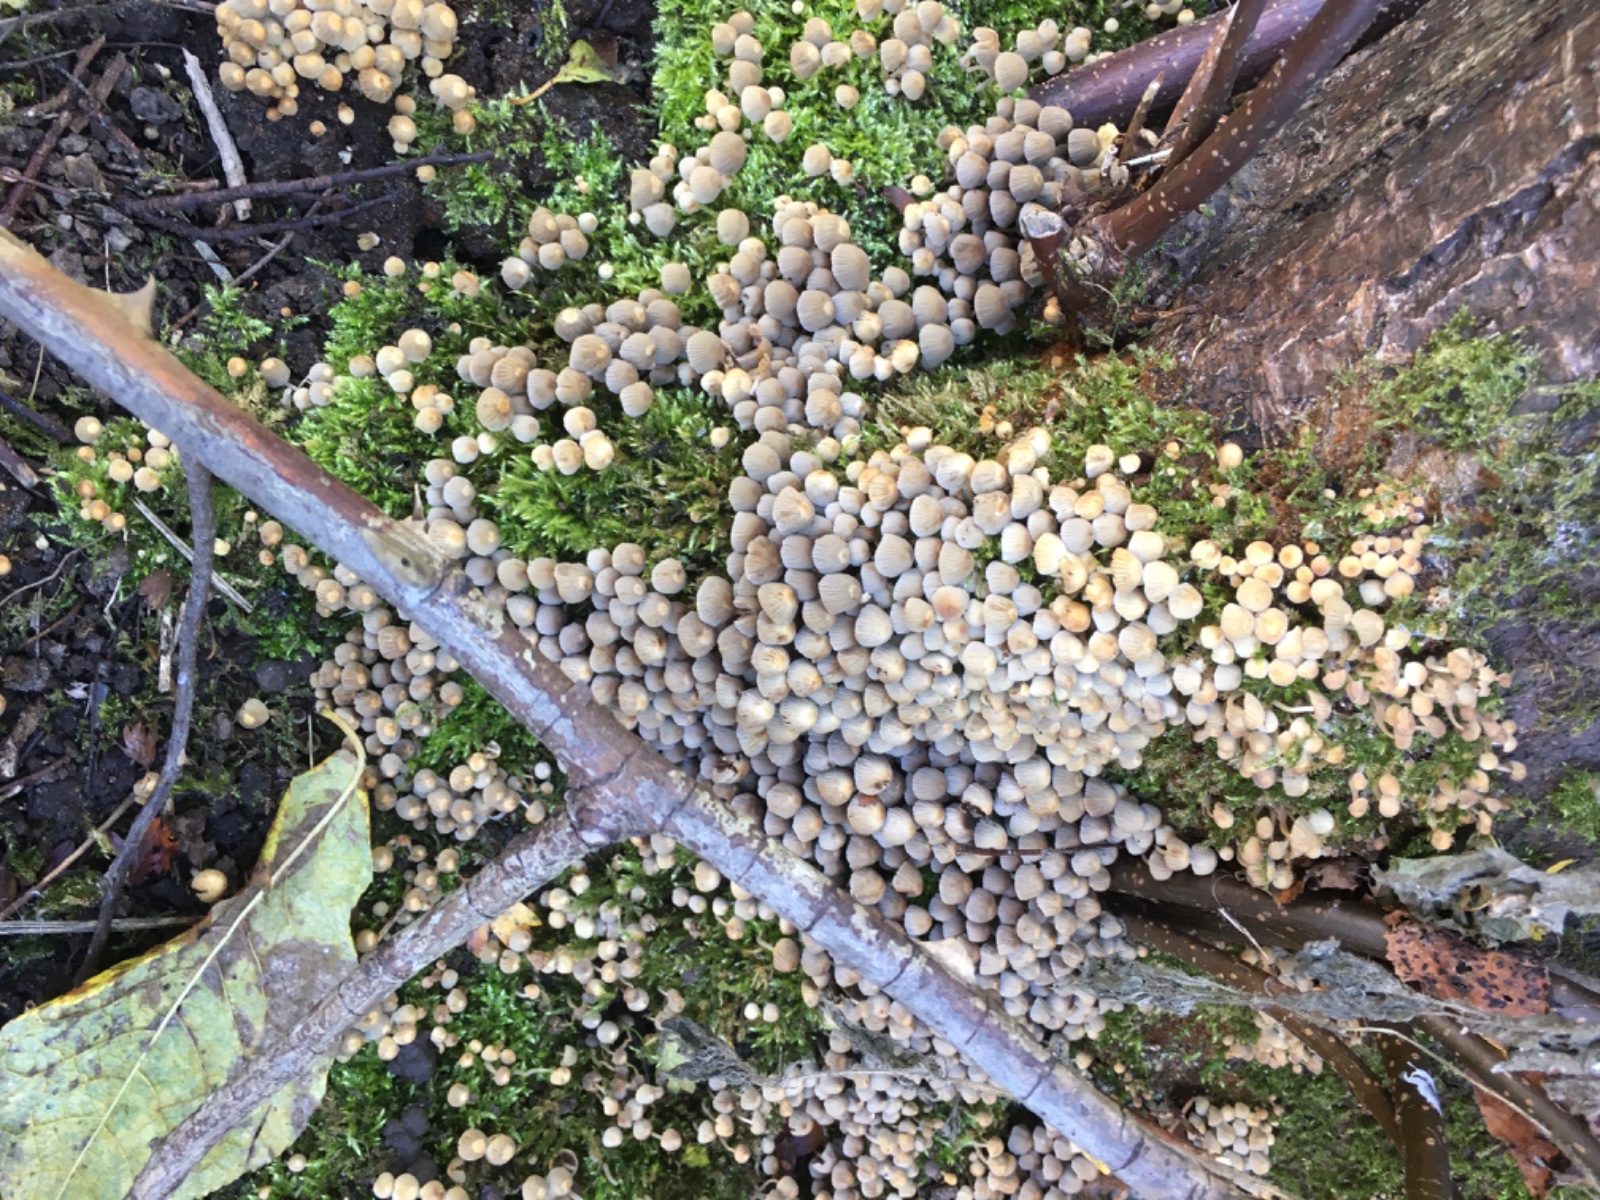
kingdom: Fungi
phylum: Basidiomycota
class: Agaricomycetes
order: Agaricales
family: Psathyrellaceae
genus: Coprinellus
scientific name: Coprinellus disseminatus
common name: bredsået blækhat
